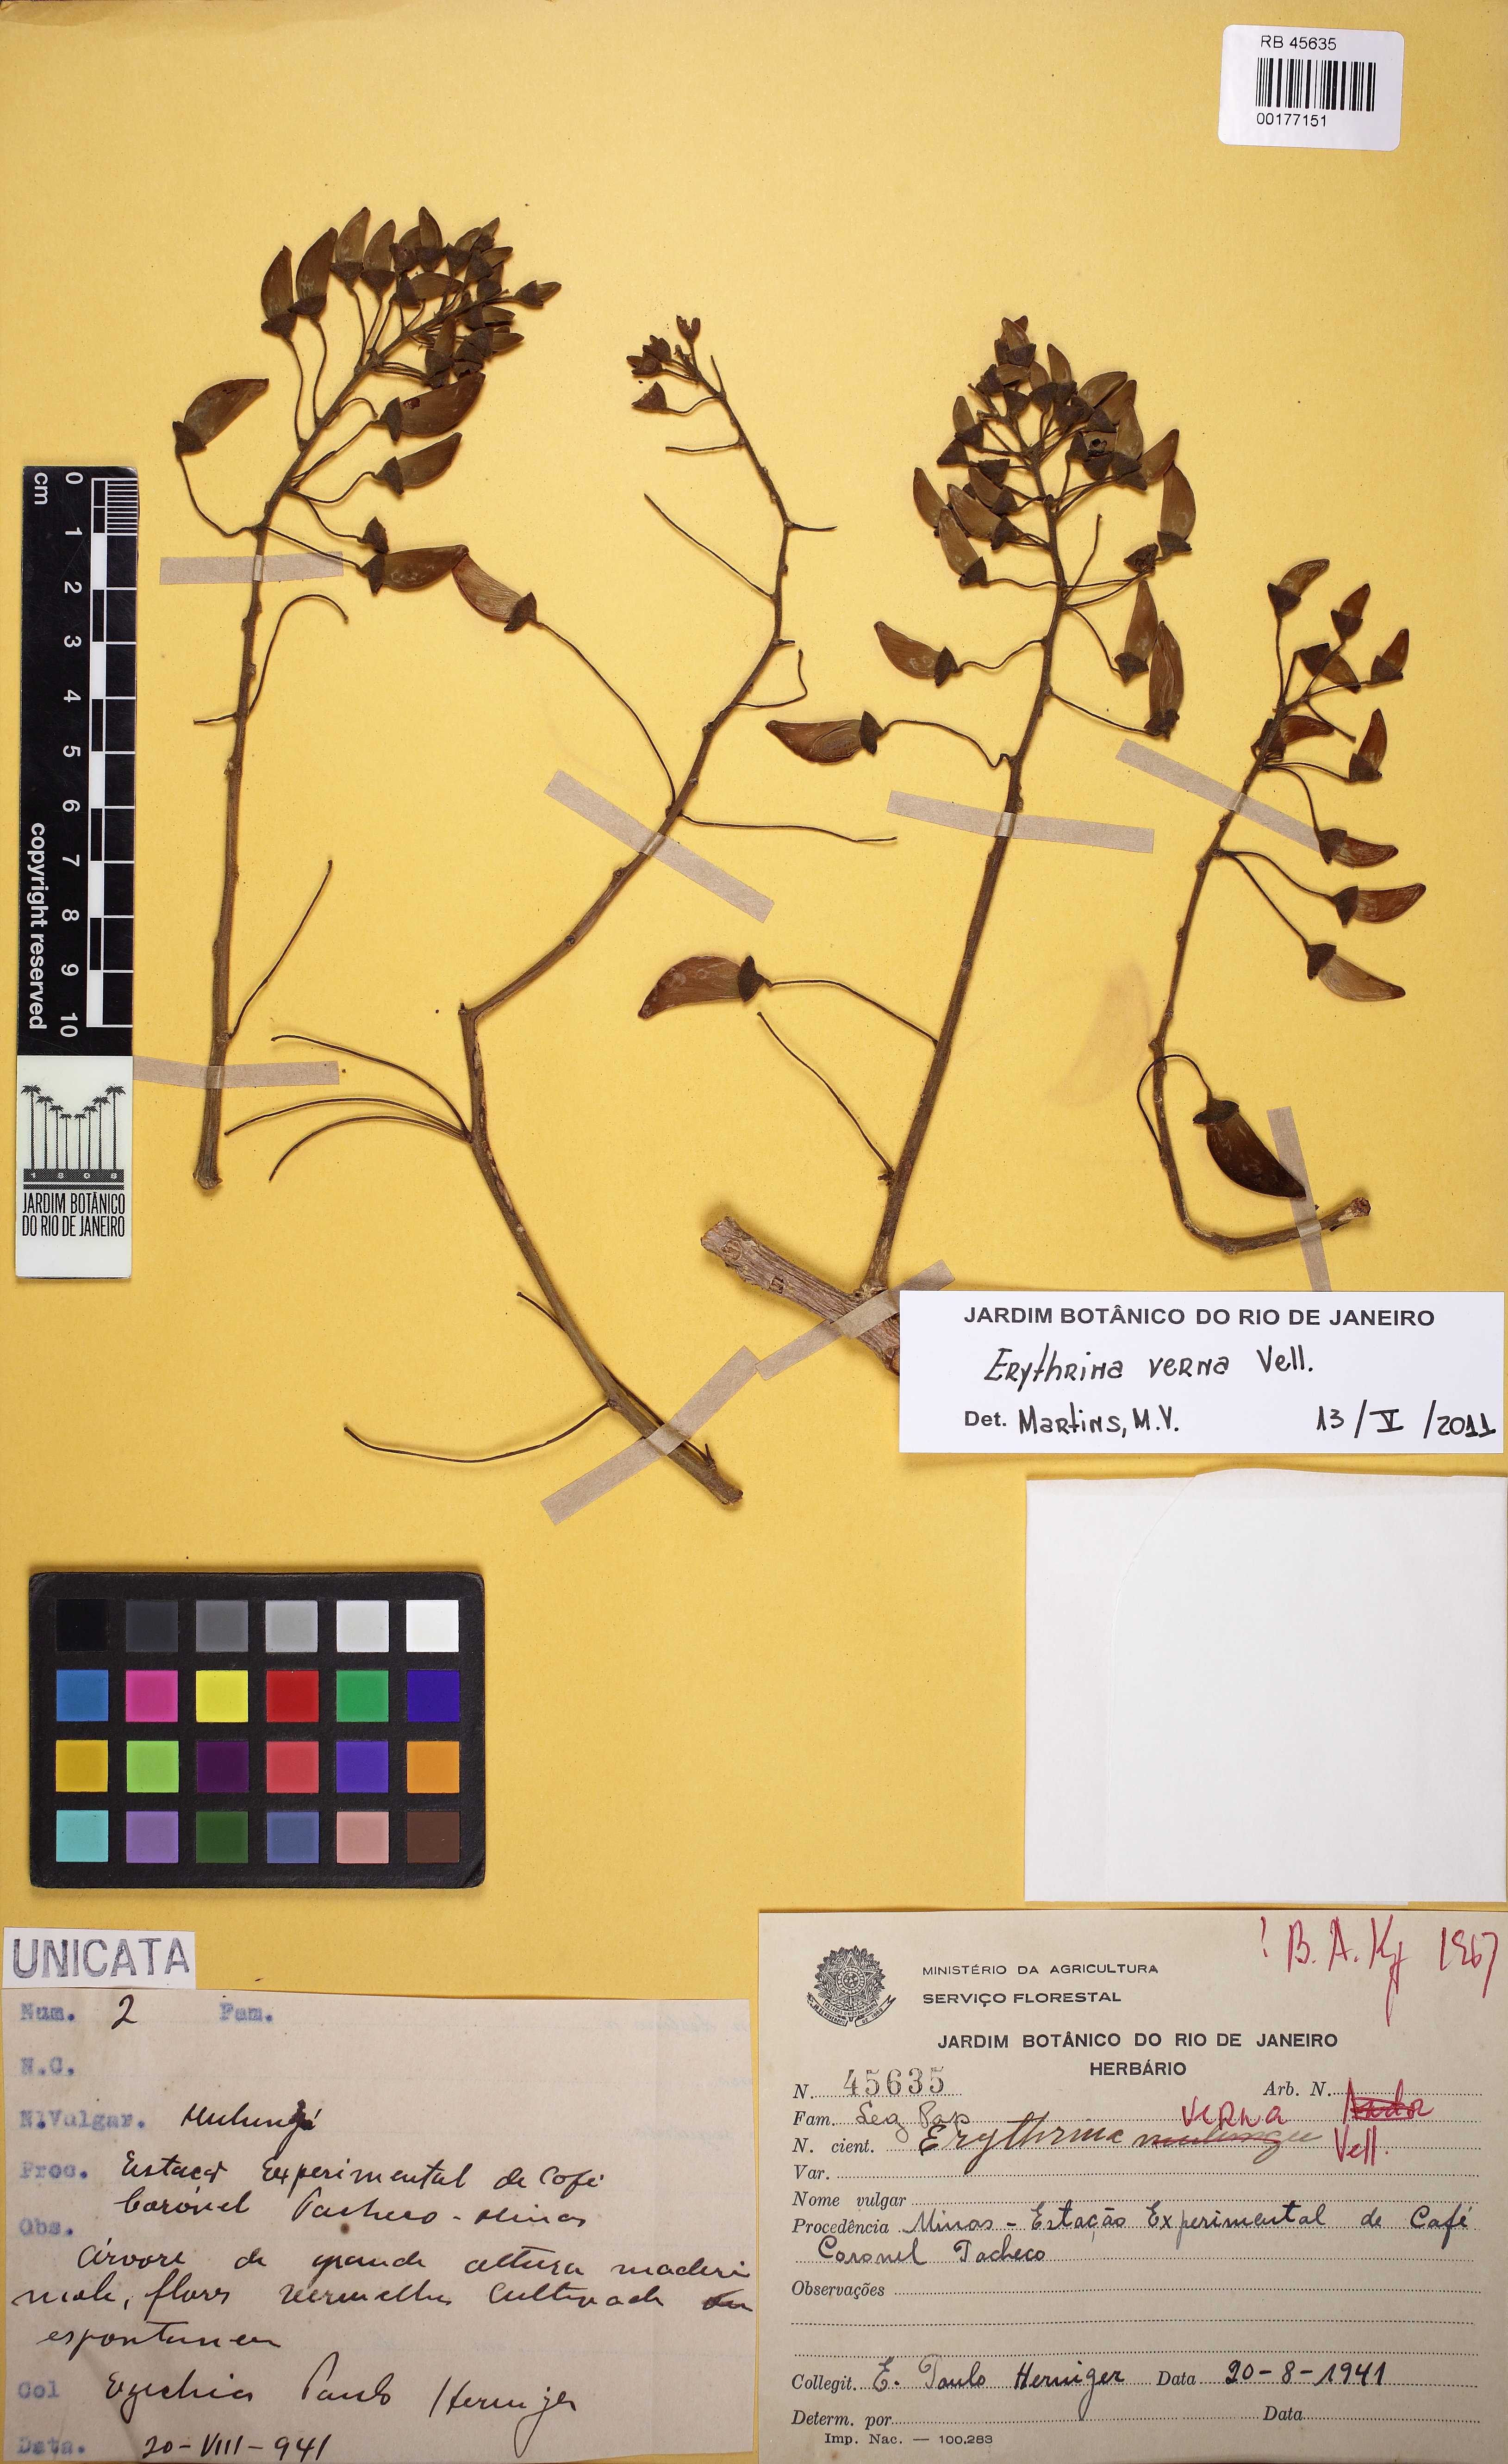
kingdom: Plantae
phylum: Tracheophyta
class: Magnoliopsida
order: Fabales
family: Fabaceae
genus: Erythrina
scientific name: Erythrina verna
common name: Mulungú
